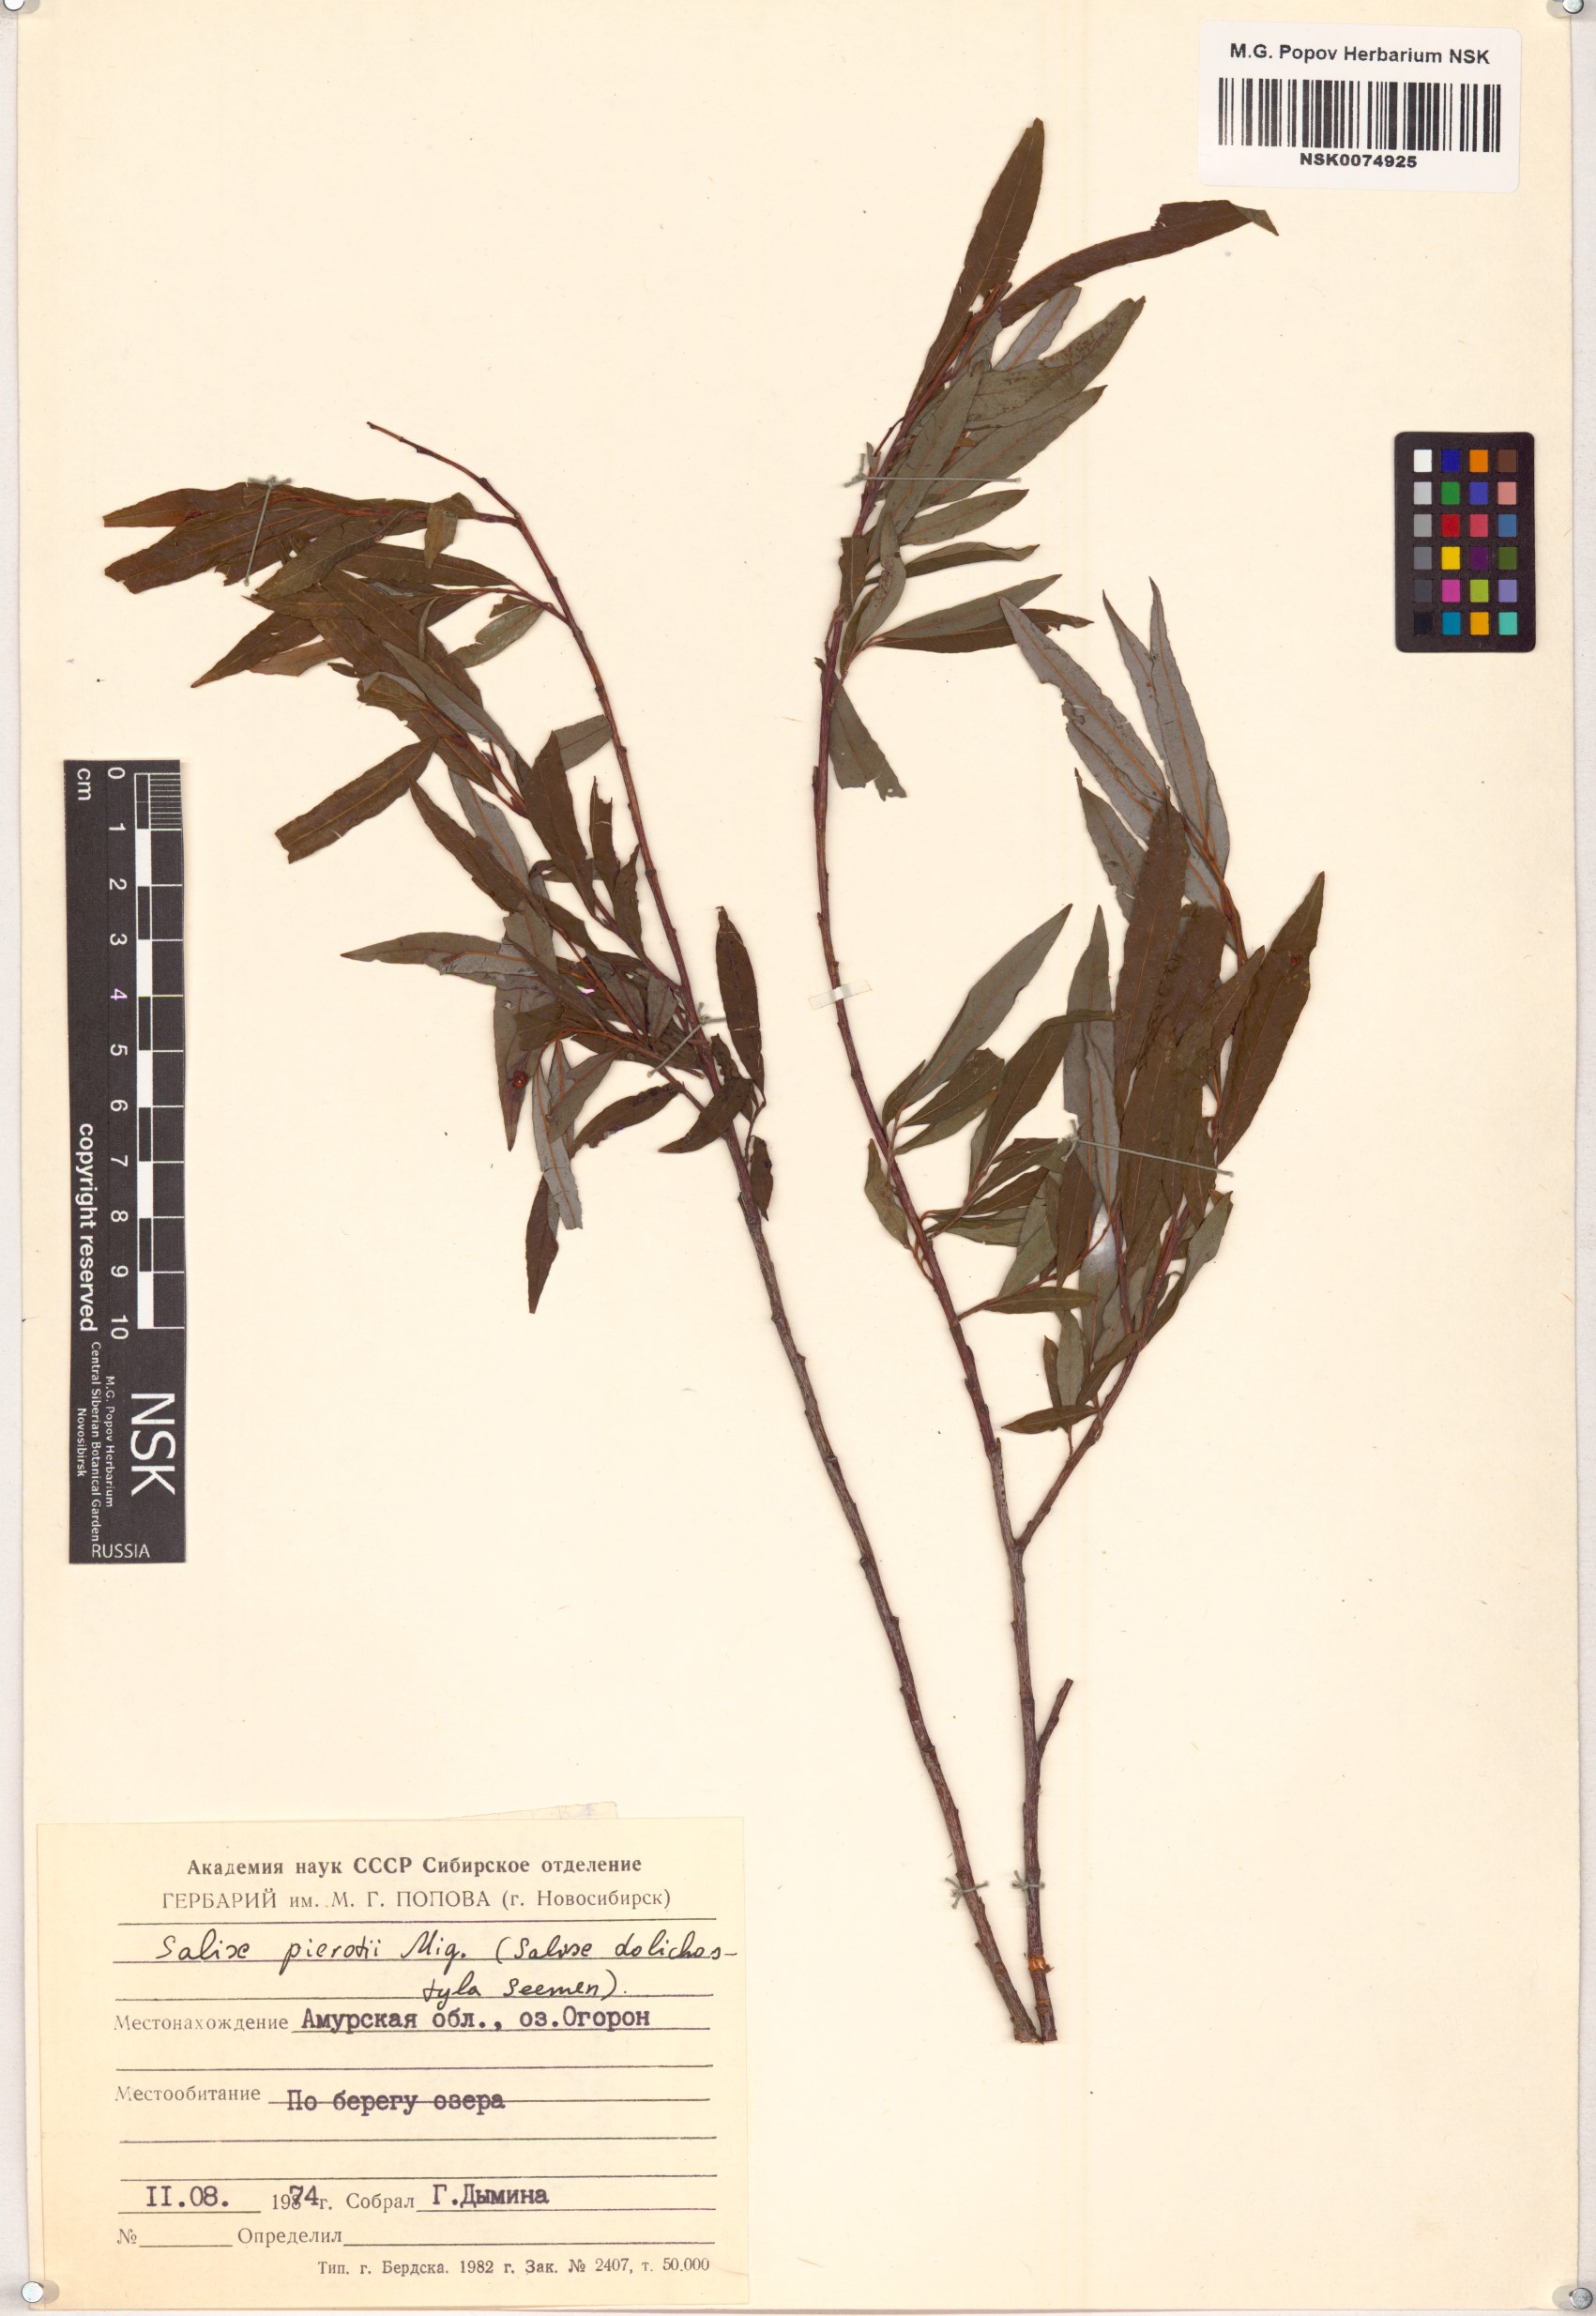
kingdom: Plantae
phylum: Tracheophyta
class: Magnoliopsida
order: Malpighiales
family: Salicaceae
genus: Salix
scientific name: Salix pierotii
